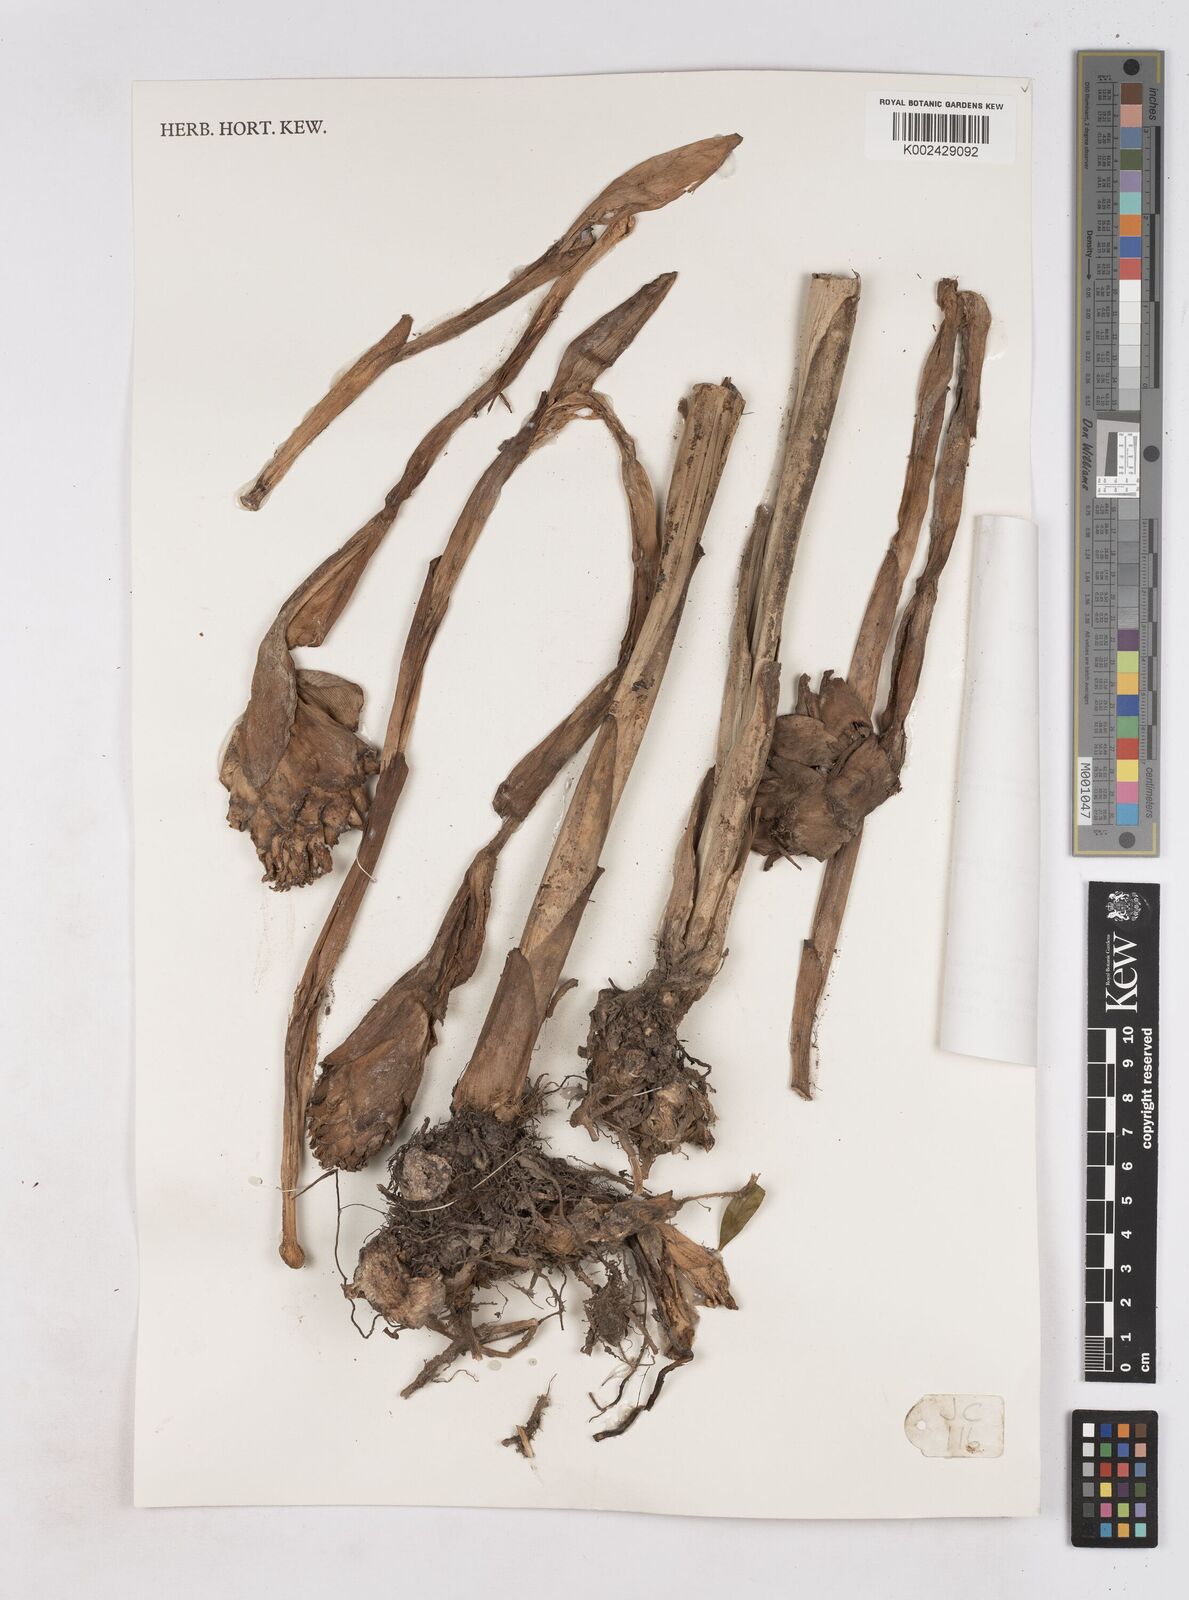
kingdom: Plantae
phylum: Tracheophyta
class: Liliopsida
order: Zingiberales
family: Zingiberaceae
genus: Zingiber
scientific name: Zingiber puberulum
